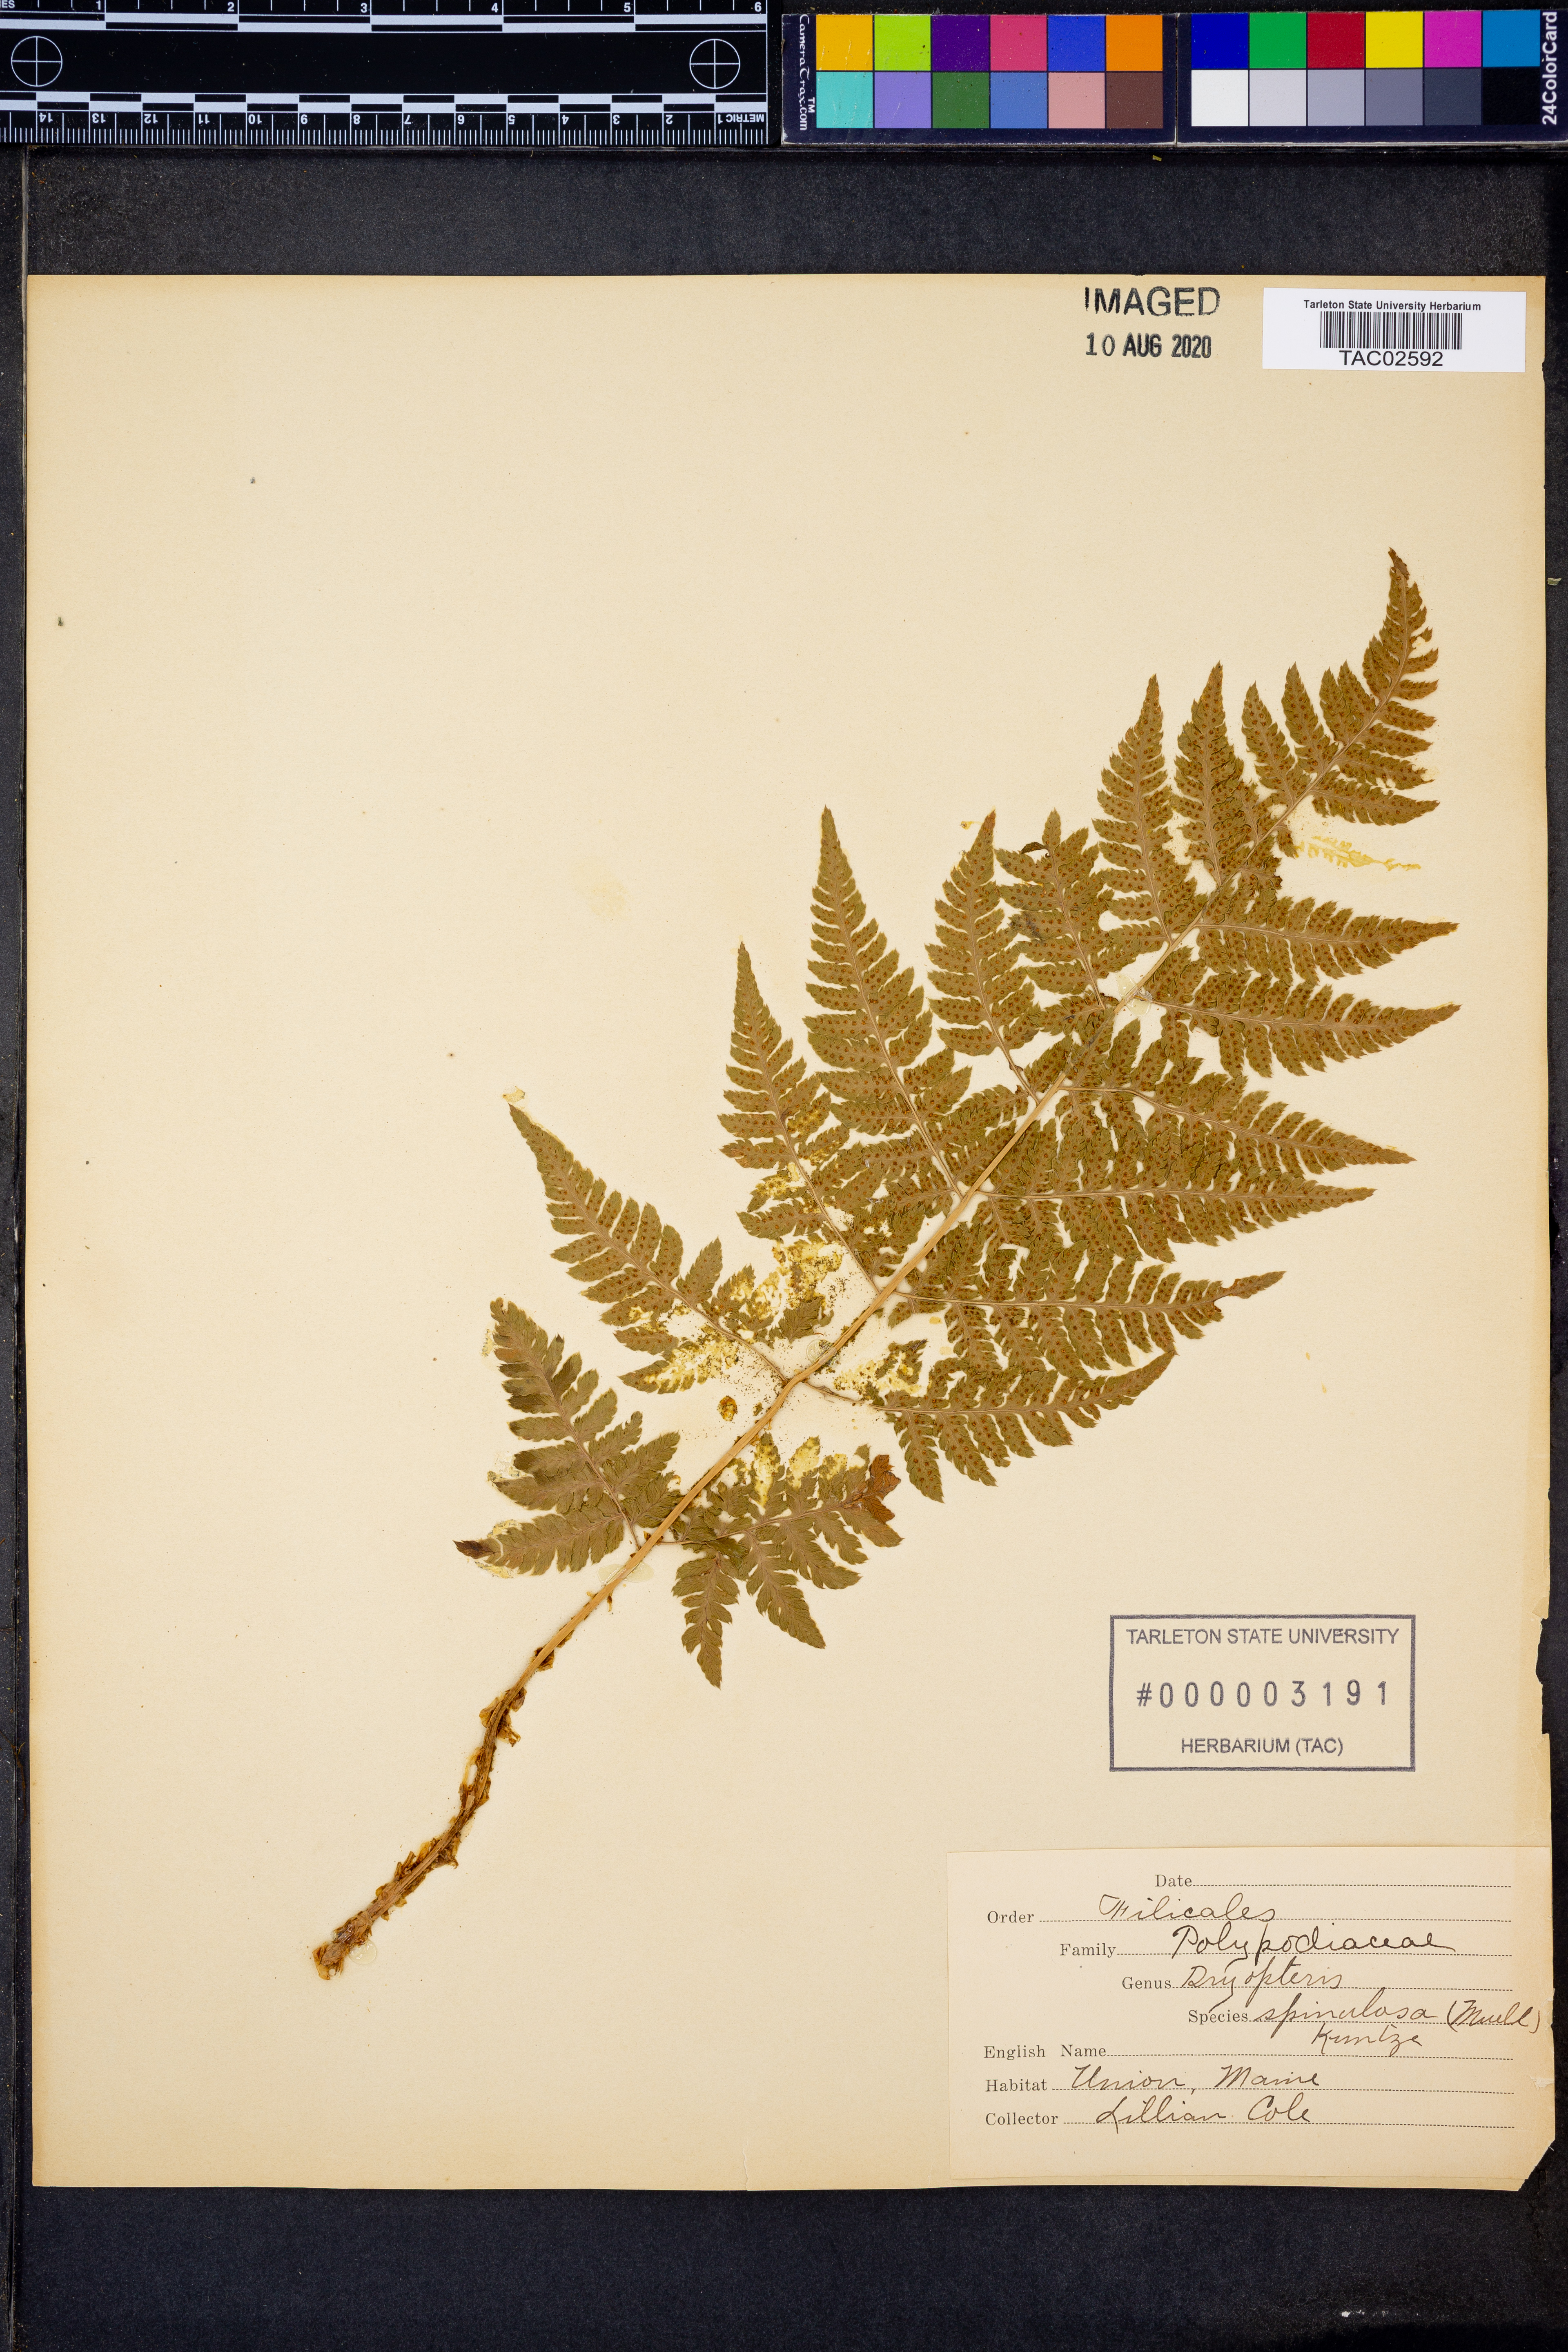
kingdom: Plantae
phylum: Tracheophyta
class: Polypodiopsida
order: Polypodiales
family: Dryopteridaceae
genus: Dryopteris
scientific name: Dryopteris carthusiana
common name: Narrow buckler-fern
